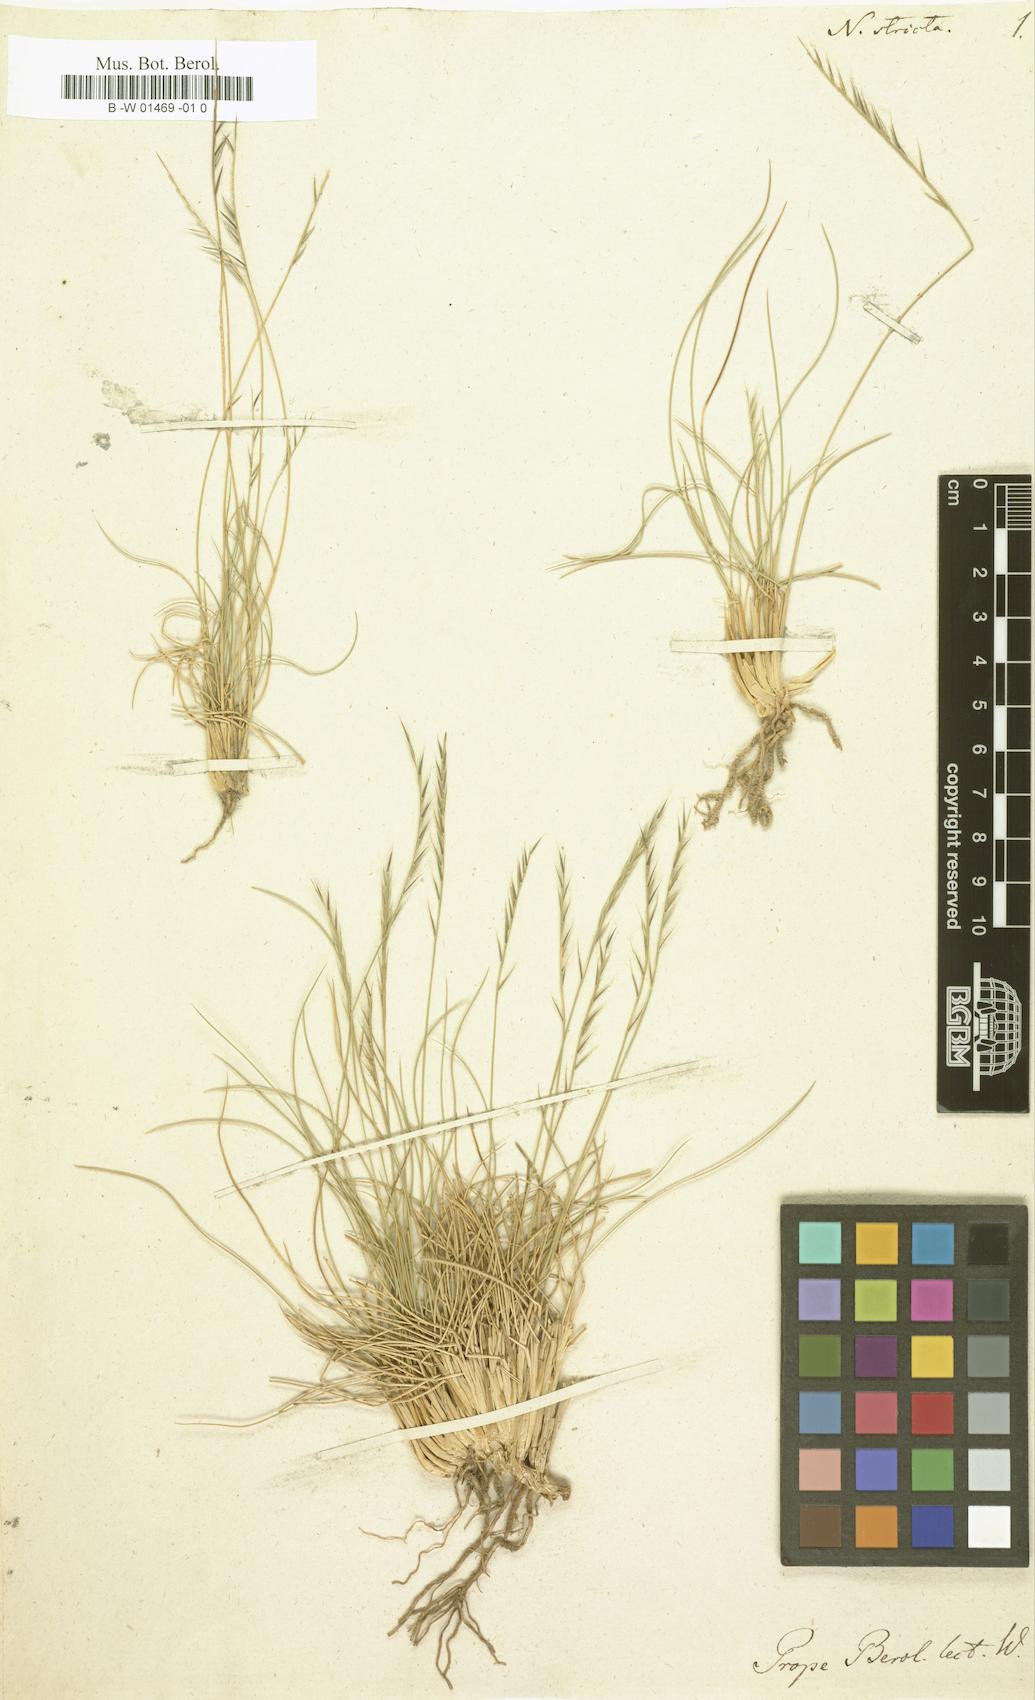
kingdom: Plantae
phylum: Tracheophyta
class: Liliopsida
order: Poales
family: Poaceae
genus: Nardus
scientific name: Nardus stricta
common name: Mat-grass
